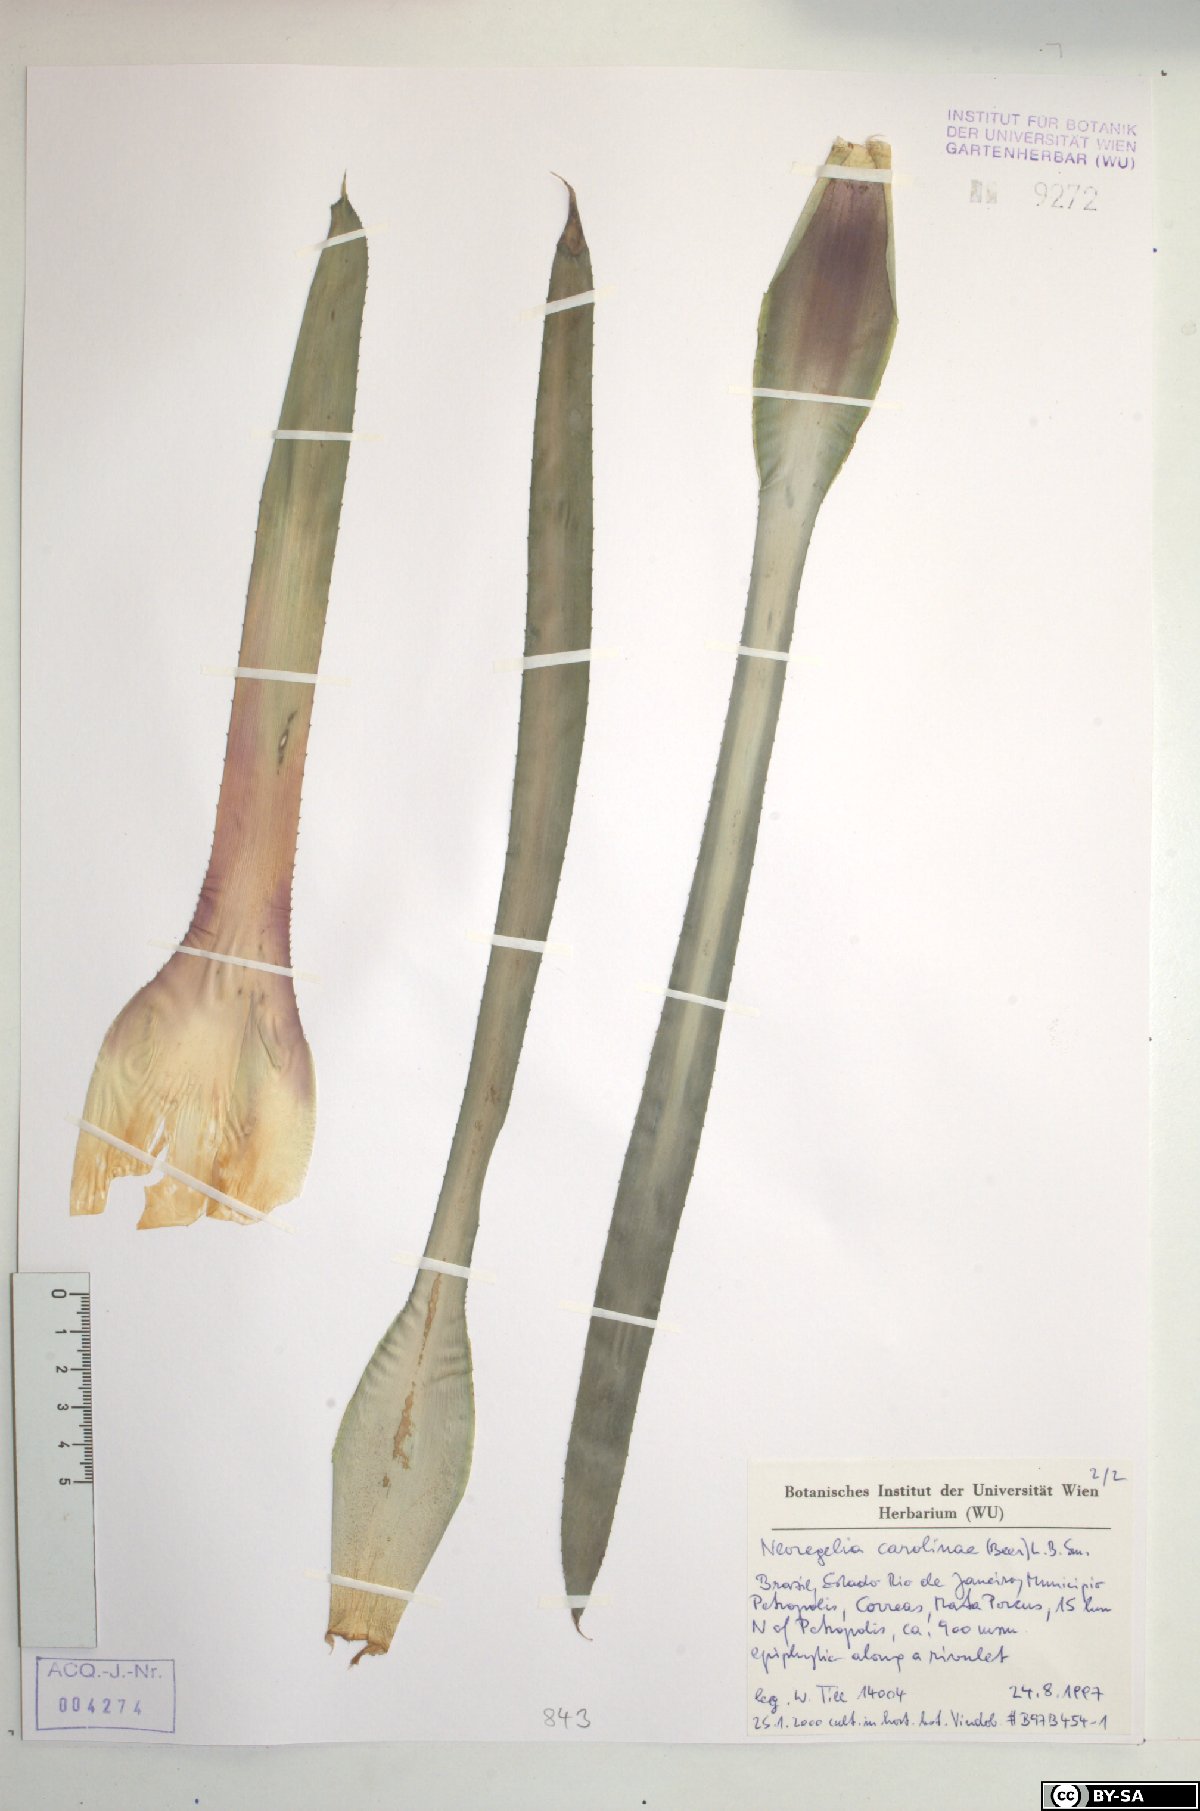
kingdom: Plantae
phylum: Tracheophyta
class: Liliopsida
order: Poales
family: Bromeliaceae
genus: Neoregelia
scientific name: Neoregelia carolinae
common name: Blushing bromeliad
